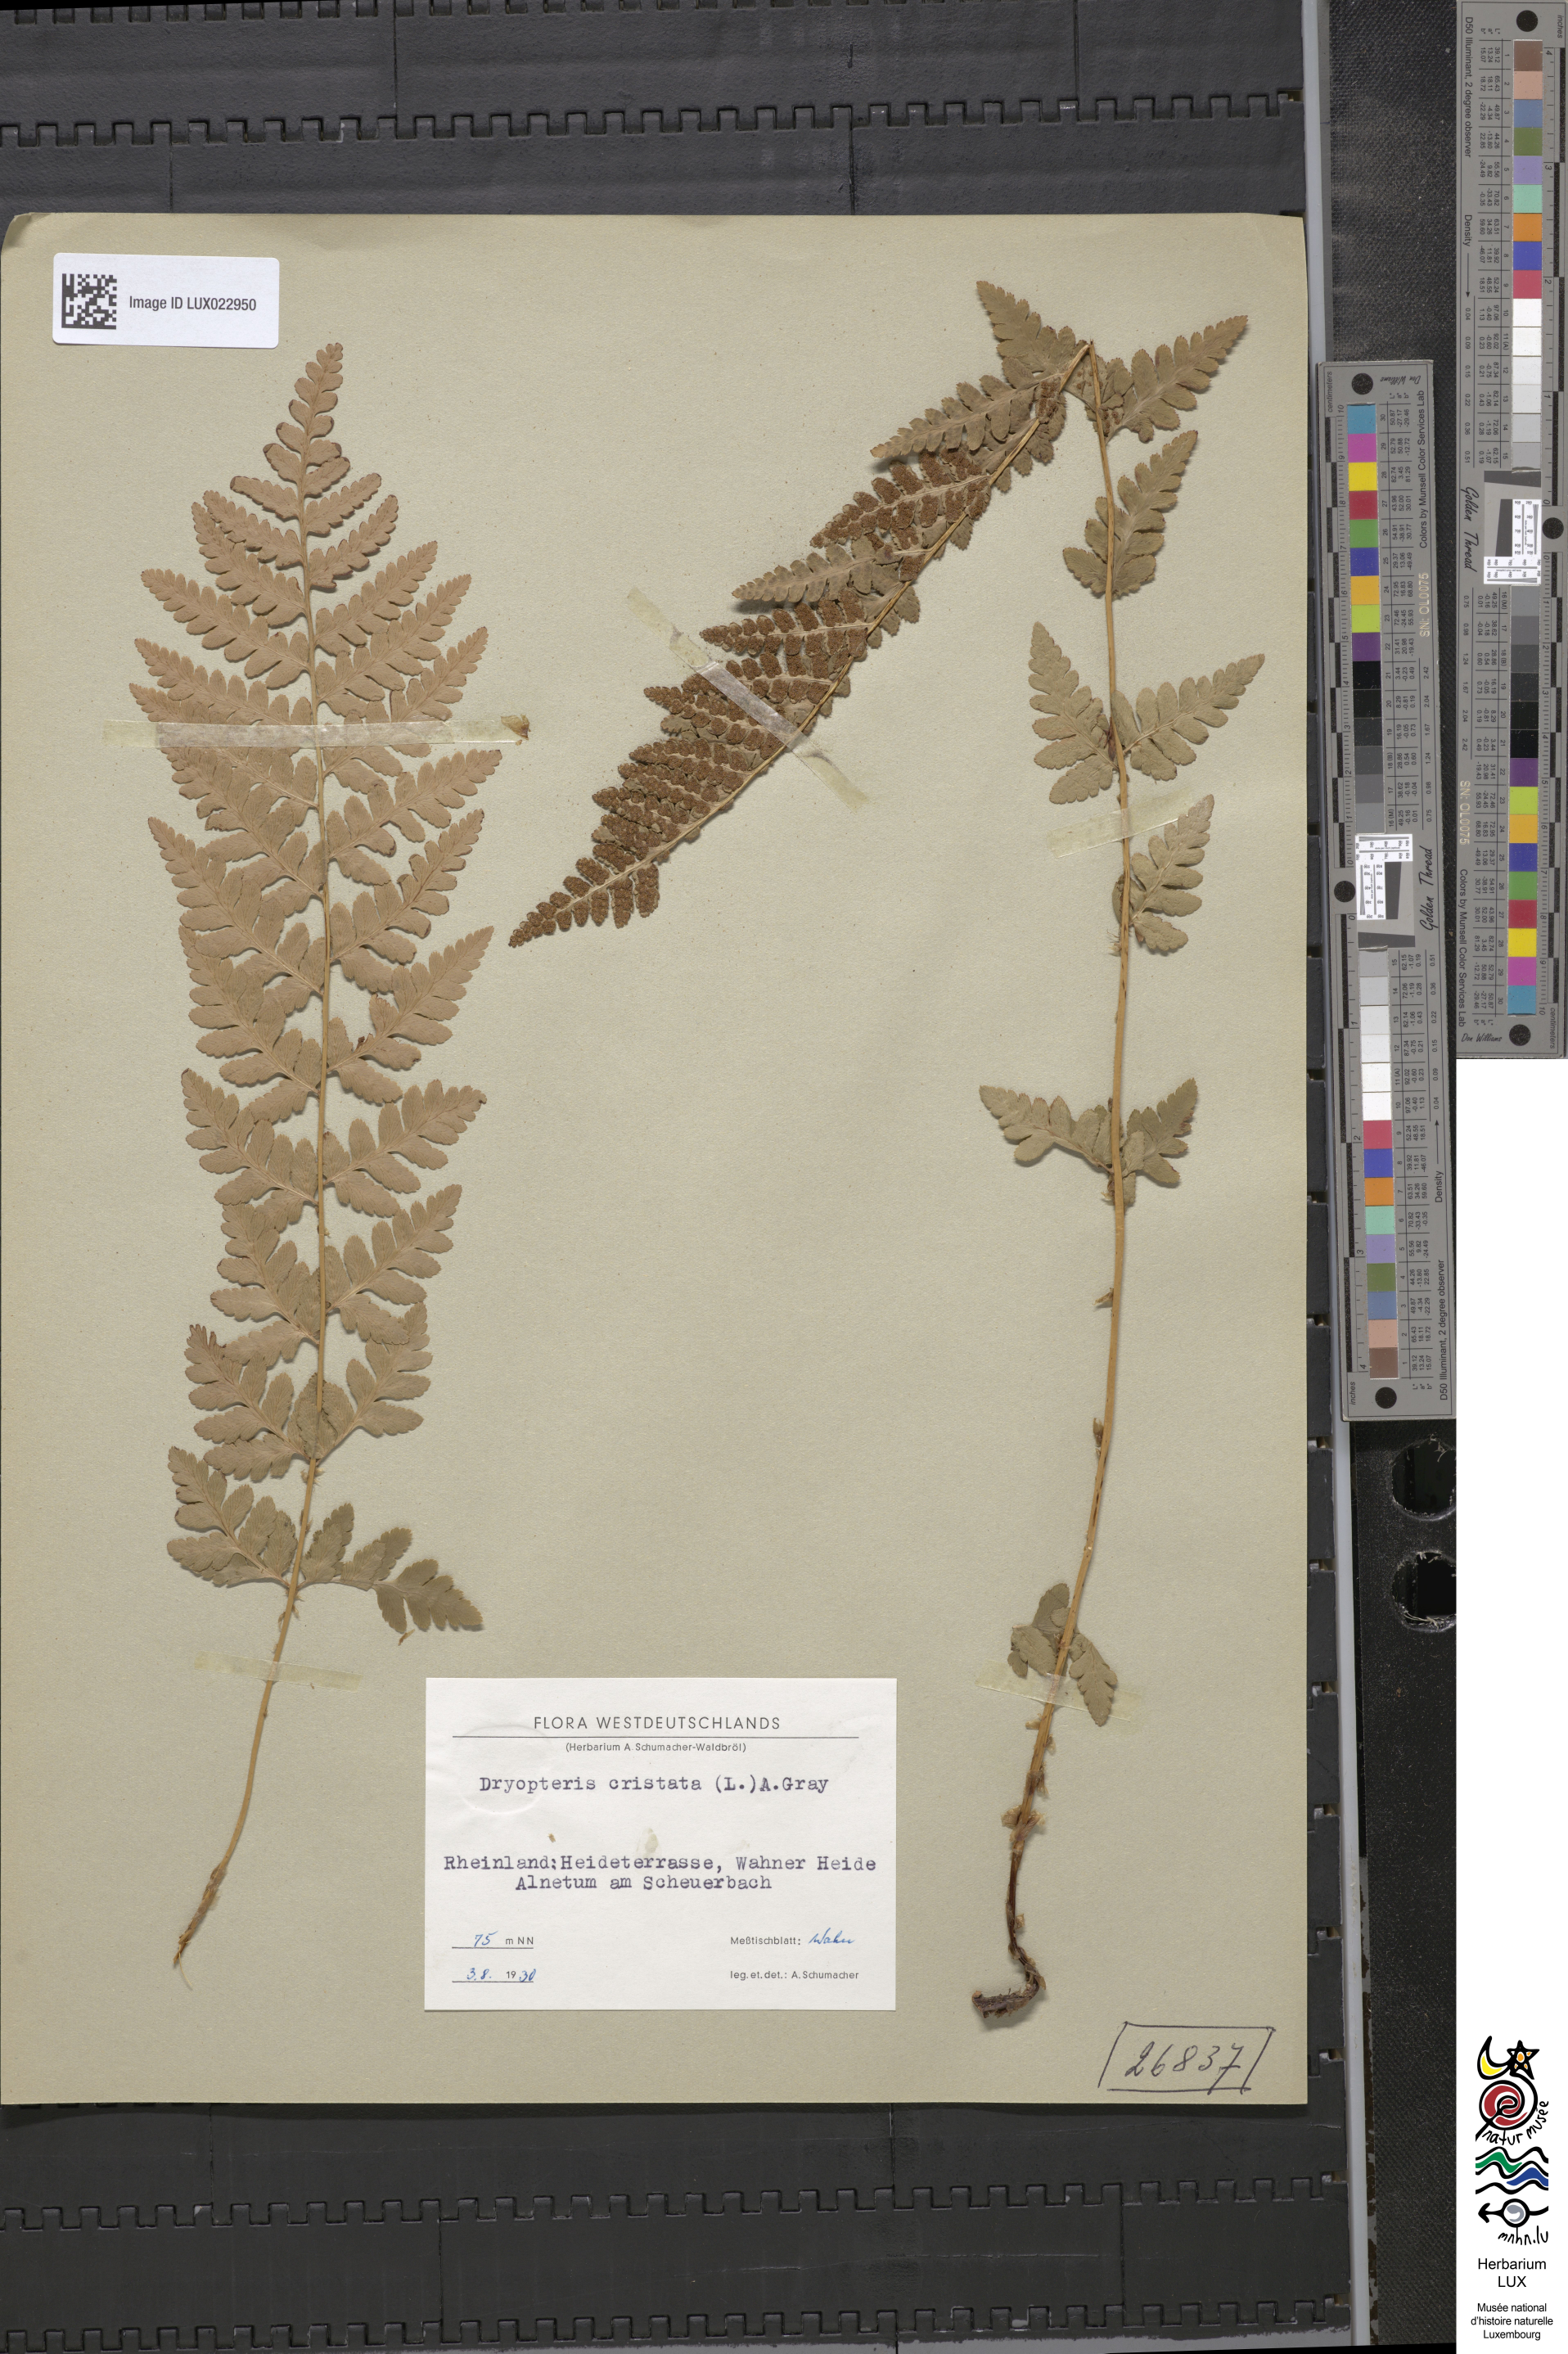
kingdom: Plantae
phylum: Tracheophyta
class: Polypodiopsida
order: Polypodiales
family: Dryopteridaceae
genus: Dryopteris
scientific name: Dryopteris cristata
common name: Crested wood fern
